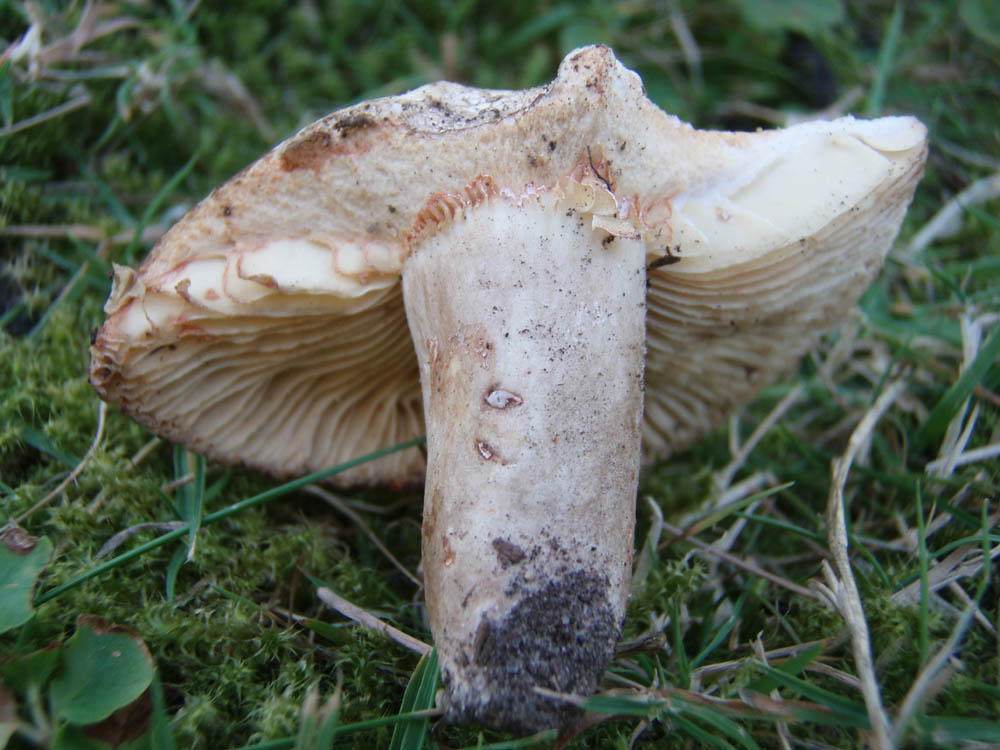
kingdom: Fungi
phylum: Basidiomycota
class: Agaricomycetes
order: Russulales
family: Russulaceae
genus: Lactarius
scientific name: Lactarius romagnesii
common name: fjernbladet mælkehat
